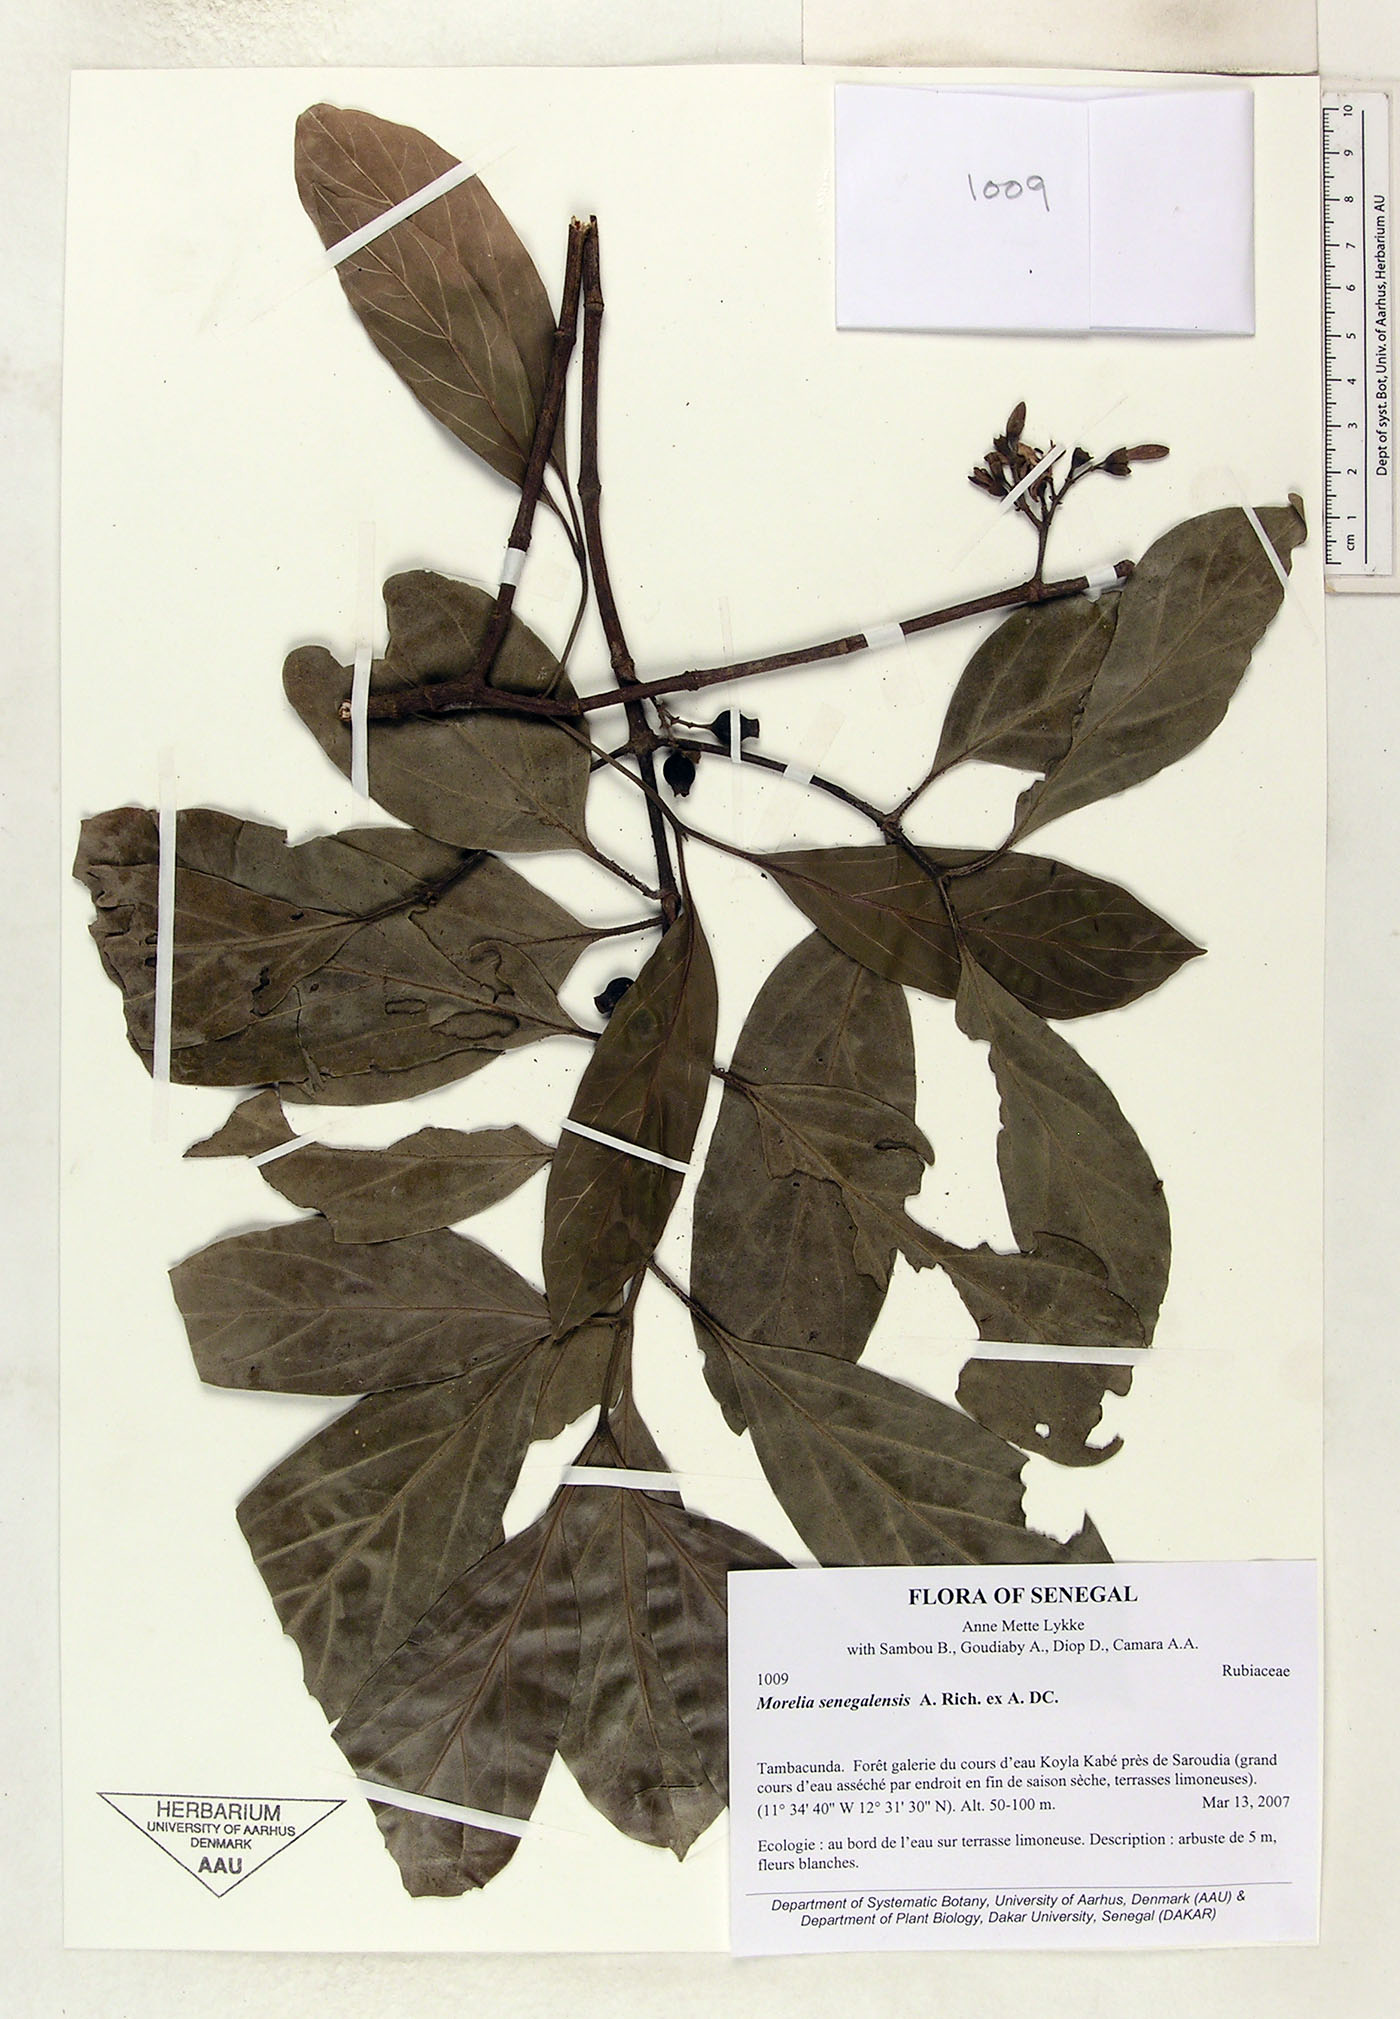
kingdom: Plantae
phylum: Tracheophyta
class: Magnoliopsida
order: Gentianales
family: Rubiaceae
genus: Morelia
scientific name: Morelia senegalensis
